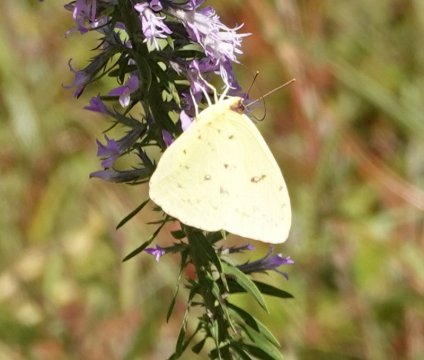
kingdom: Animalia
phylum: Arthropoda
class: Insecta
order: Lepidoptera
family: Pieridae
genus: Phoebis
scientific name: Phoebis sennae
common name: Cloudless Sulphur
